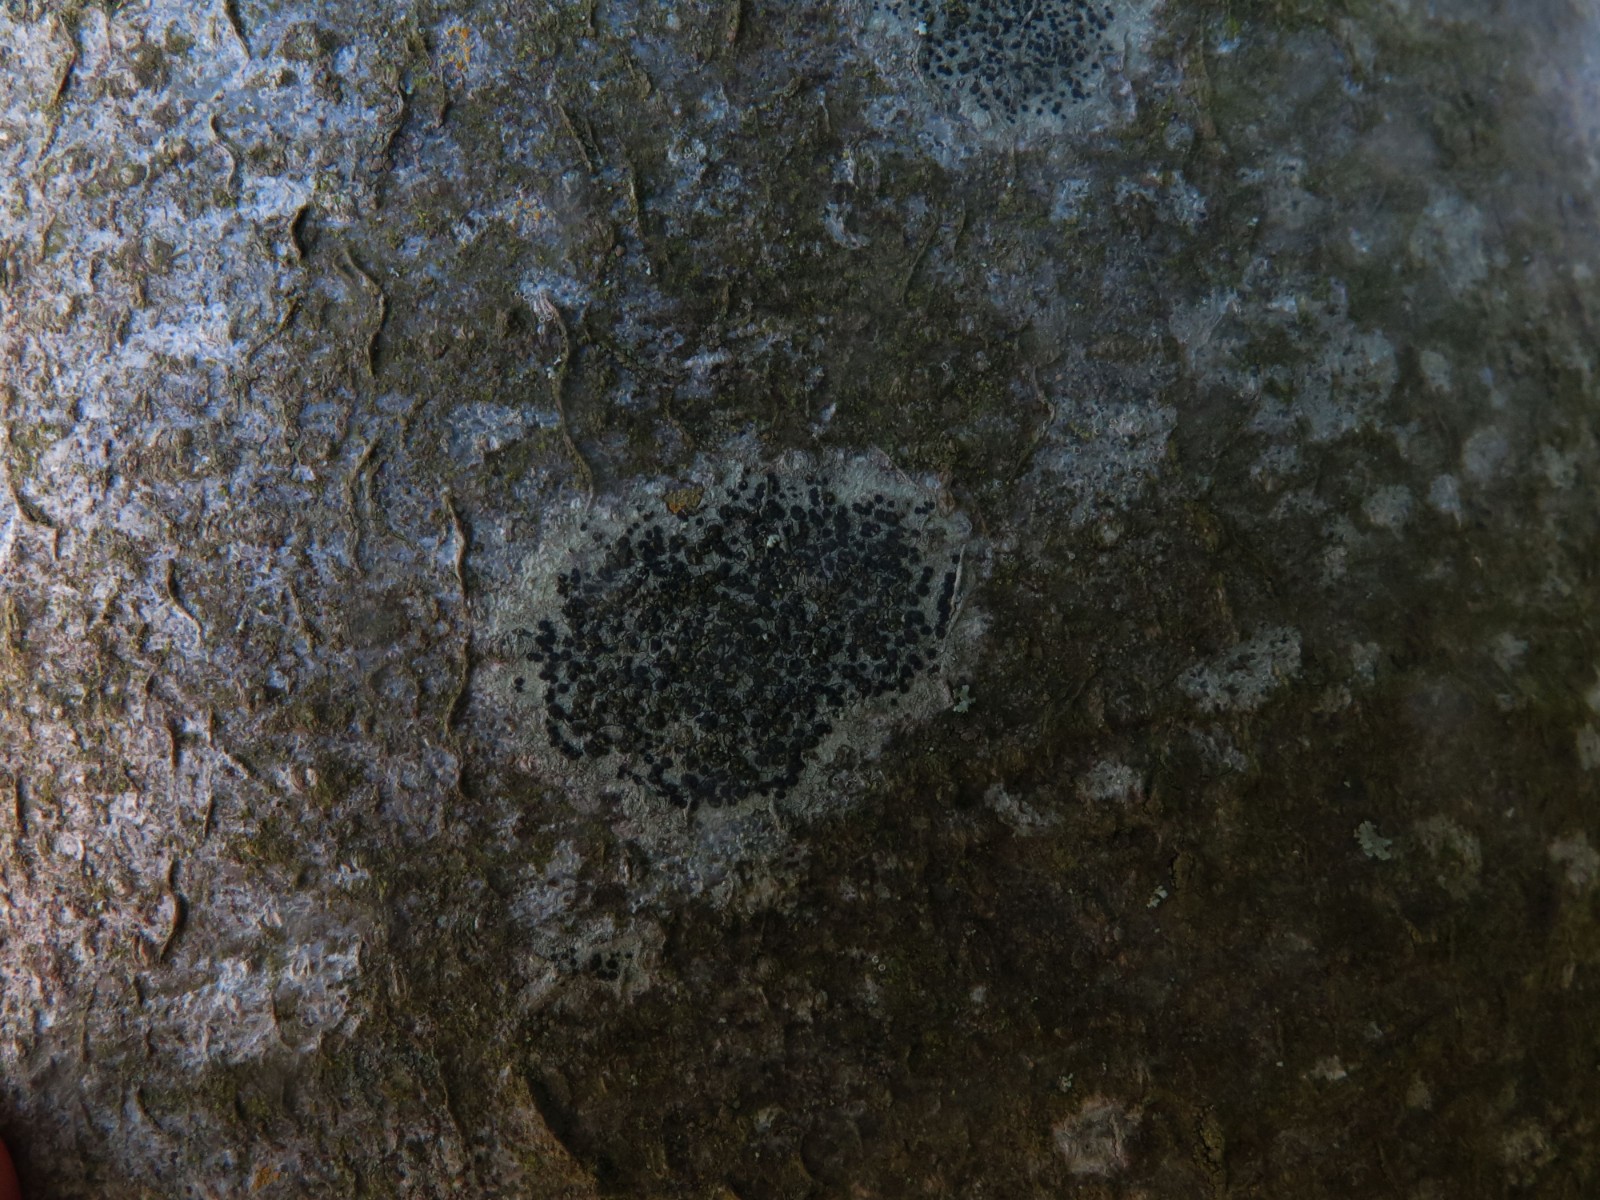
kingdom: Fungi
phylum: Ascomycota
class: Lecanoromycetes
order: Lecanorales
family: Lecanoraceae
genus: Lecidella
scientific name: Lecidella elaeochroma
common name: grågrøn skivelav
